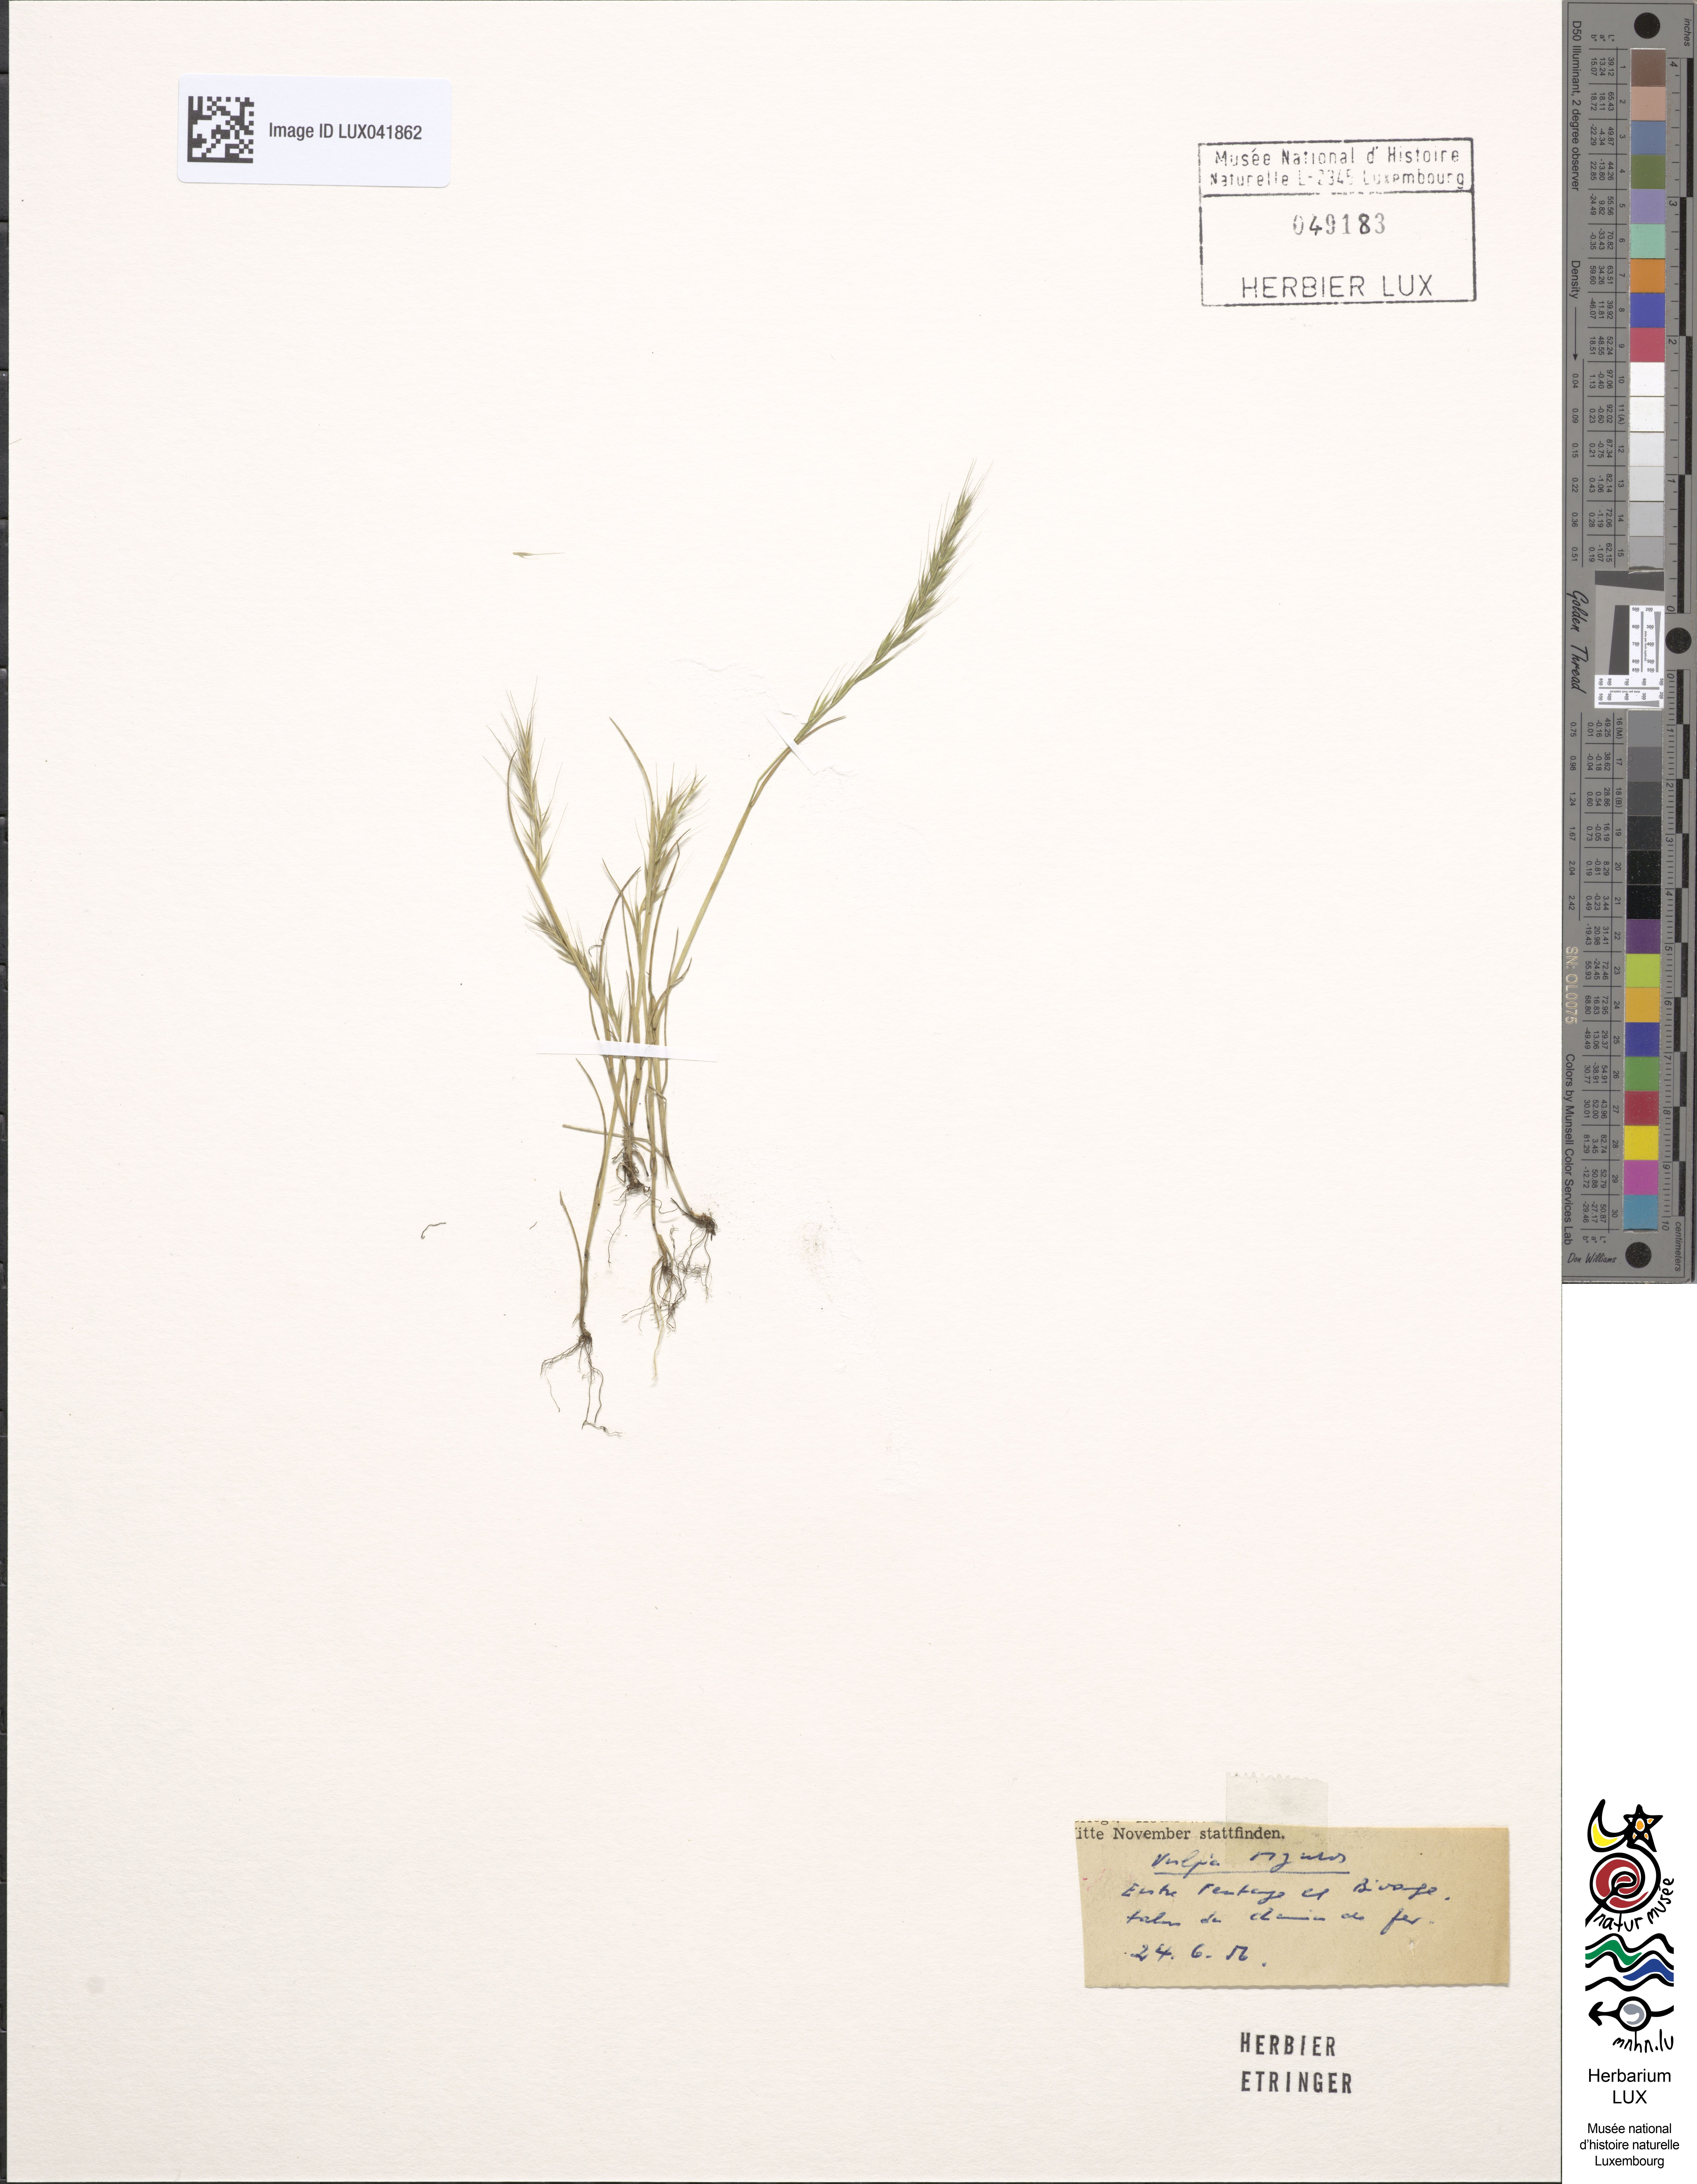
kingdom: Plantae
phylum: Tracheophyta
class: Liliopsida
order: Poales
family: Poaceae
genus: Festuca
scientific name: Festuca myuros
